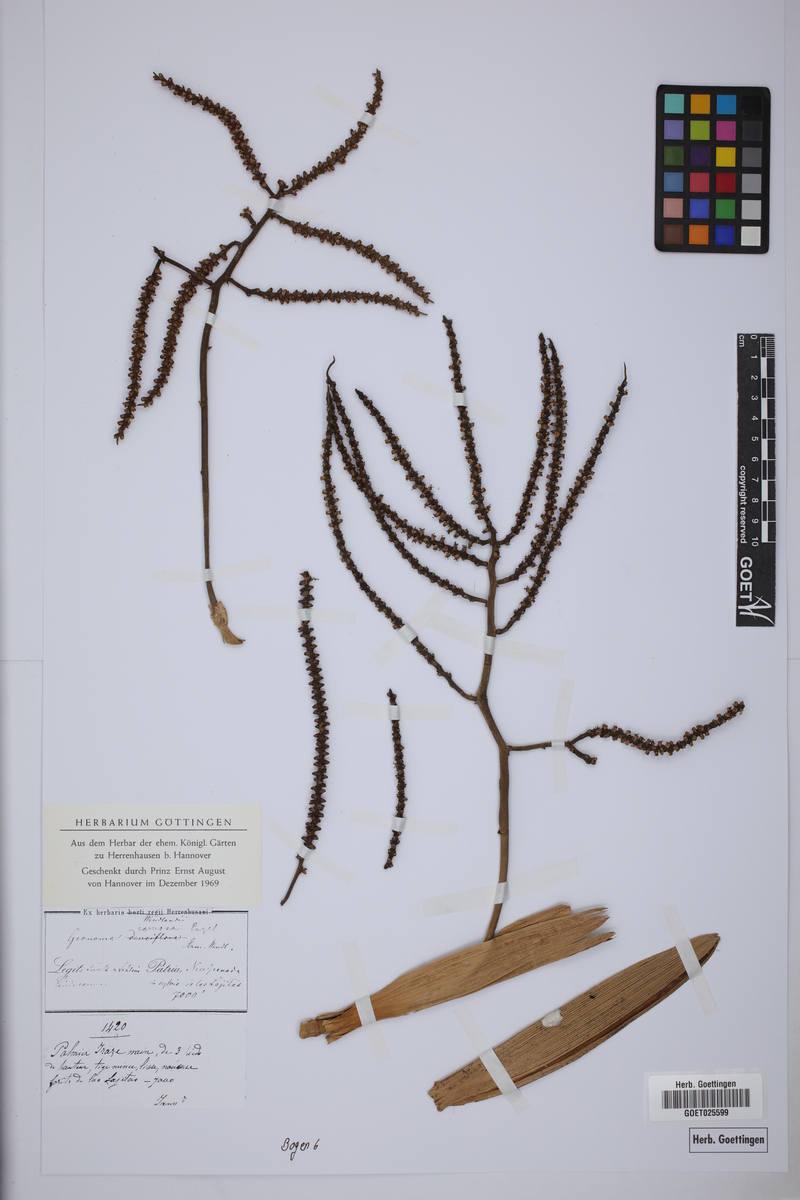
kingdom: Plantae
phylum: Tracheophyta
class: Liliopsida
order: Arecales
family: Arecaceae
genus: Geonoma
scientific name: Geonoma orbignyana
